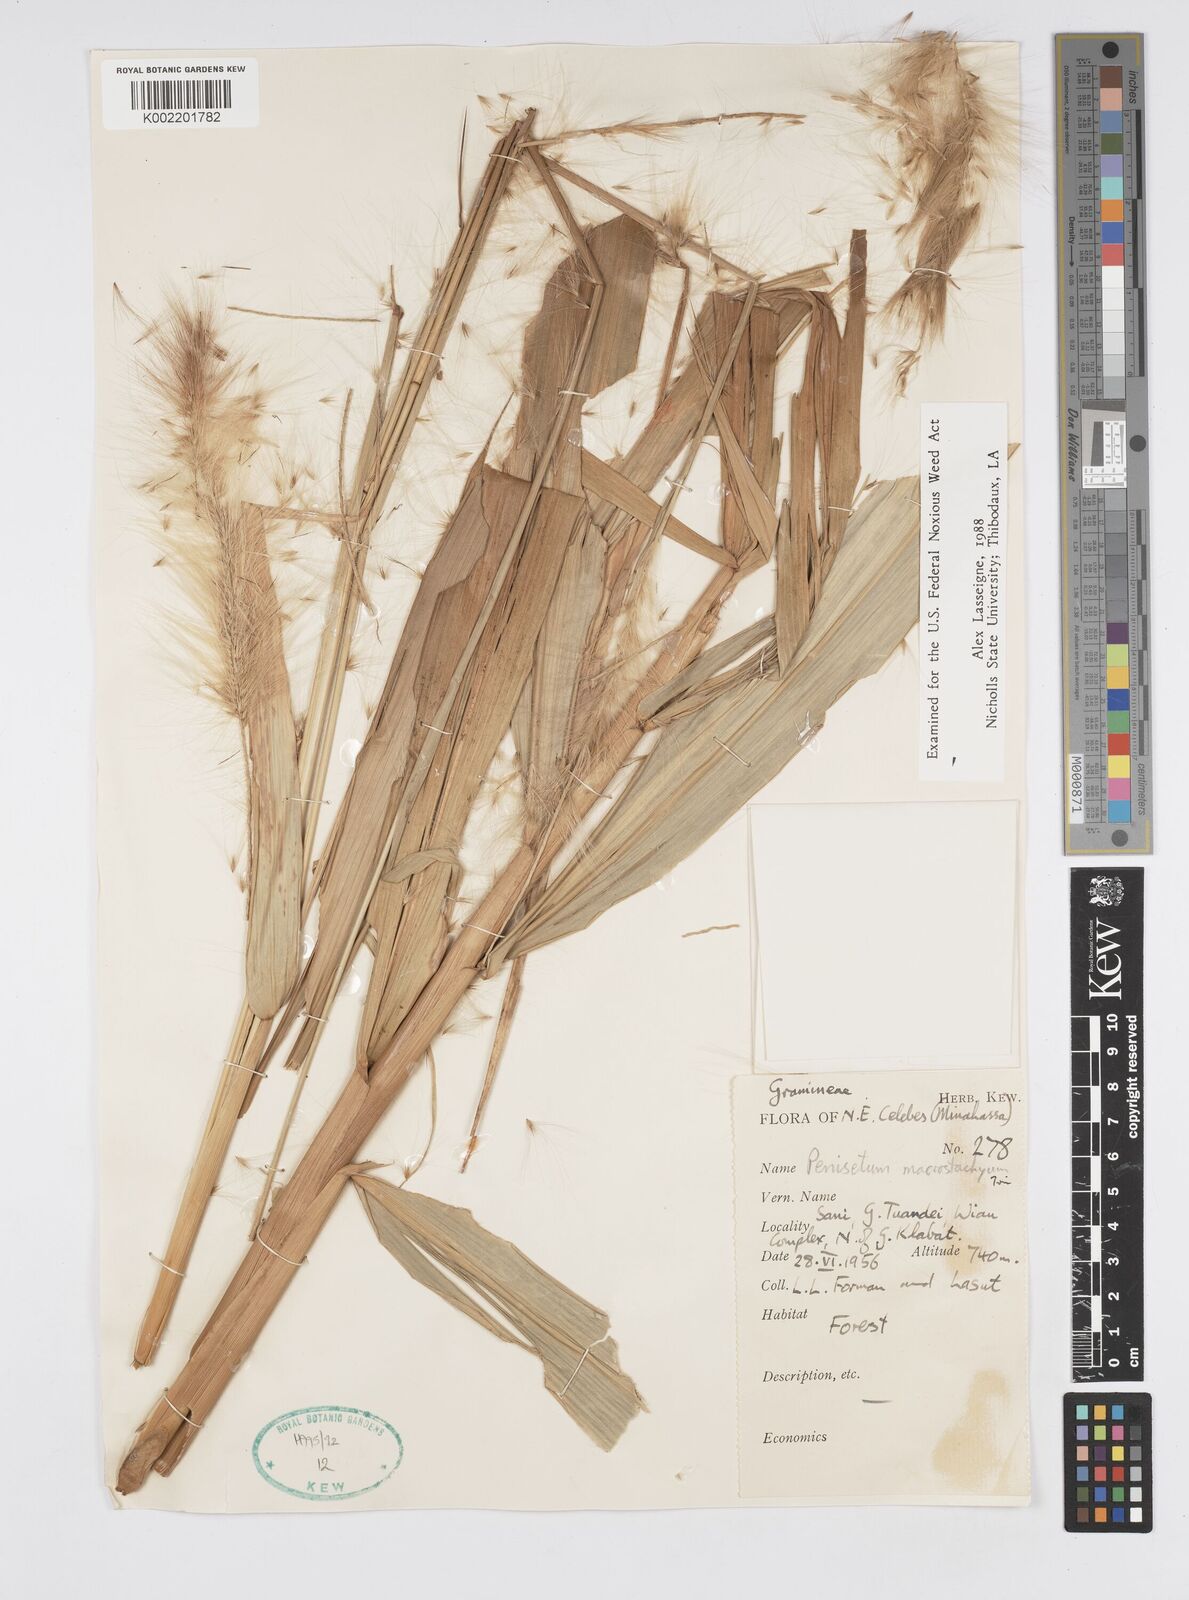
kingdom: Plantae
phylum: Tracheophyta
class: Liliopsida
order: Poales
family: Poaceae
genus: Cenchrus
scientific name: Cenchrus purpureus
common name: Elephant grass
